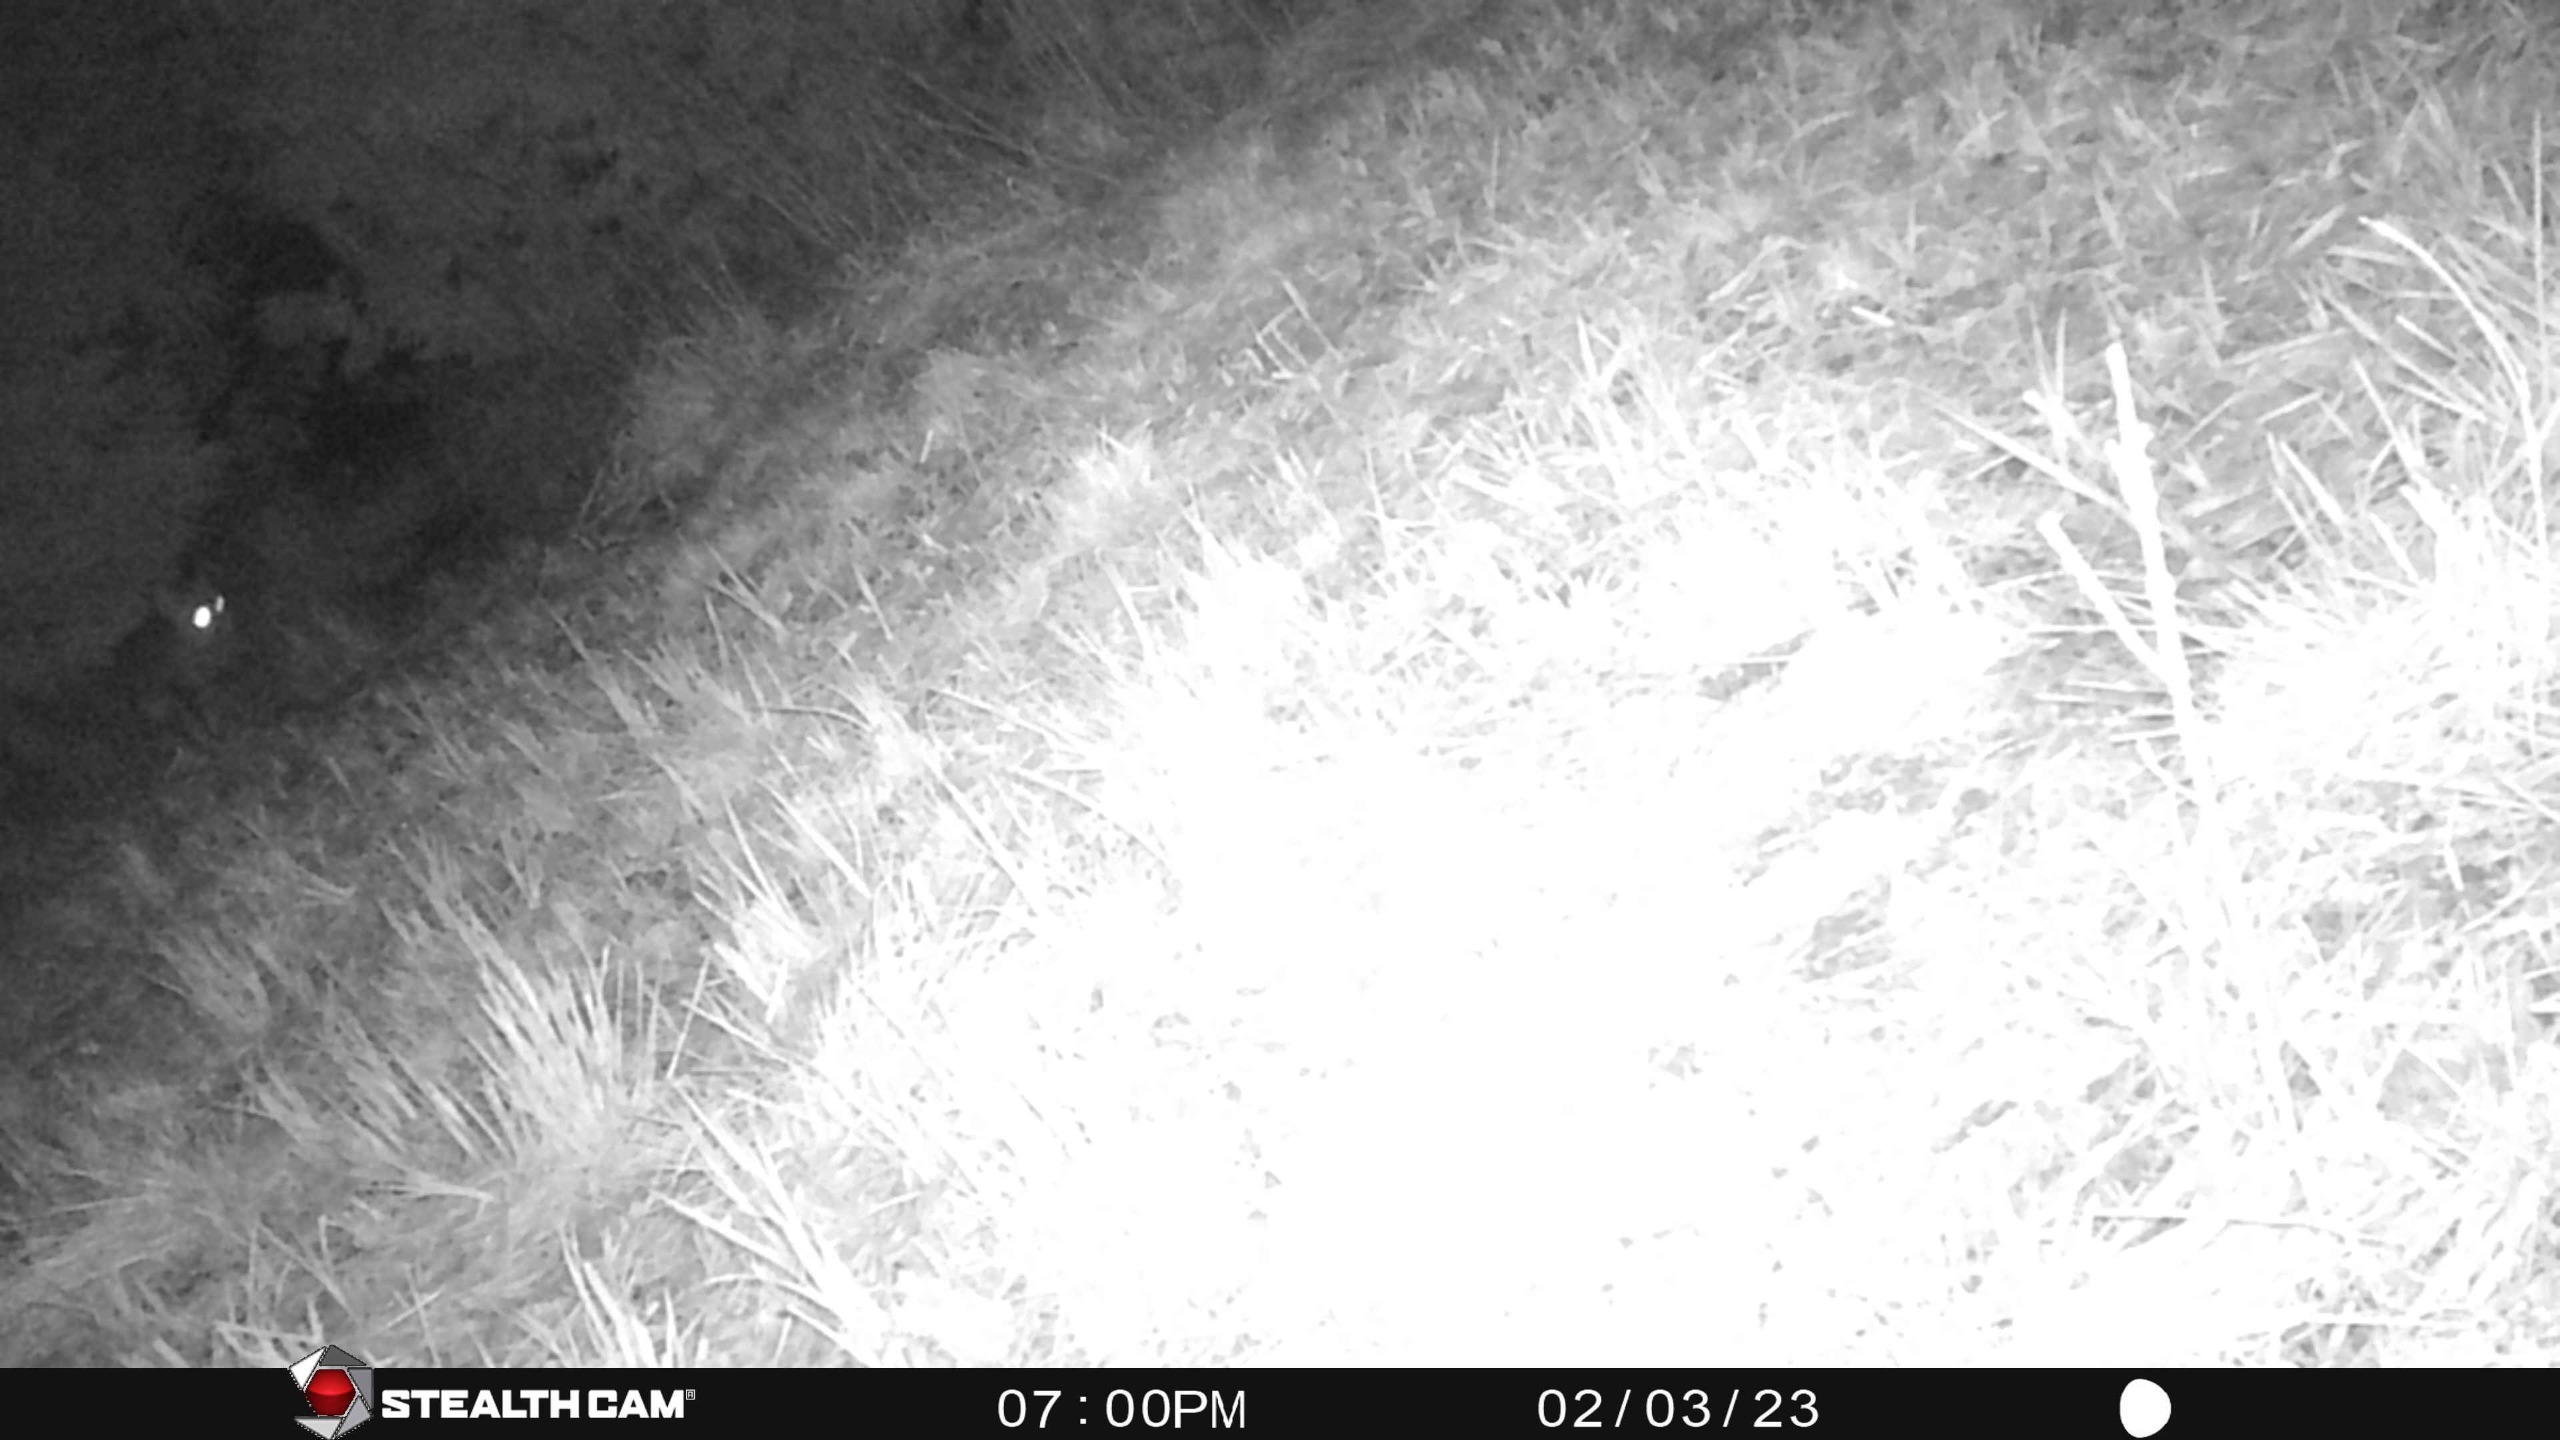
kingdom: Animalia
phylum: Chordata
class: Mammalia
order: Carnivora
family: Canidae
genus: Vulpes
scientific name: Vulpes vulpes
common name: Ræv
